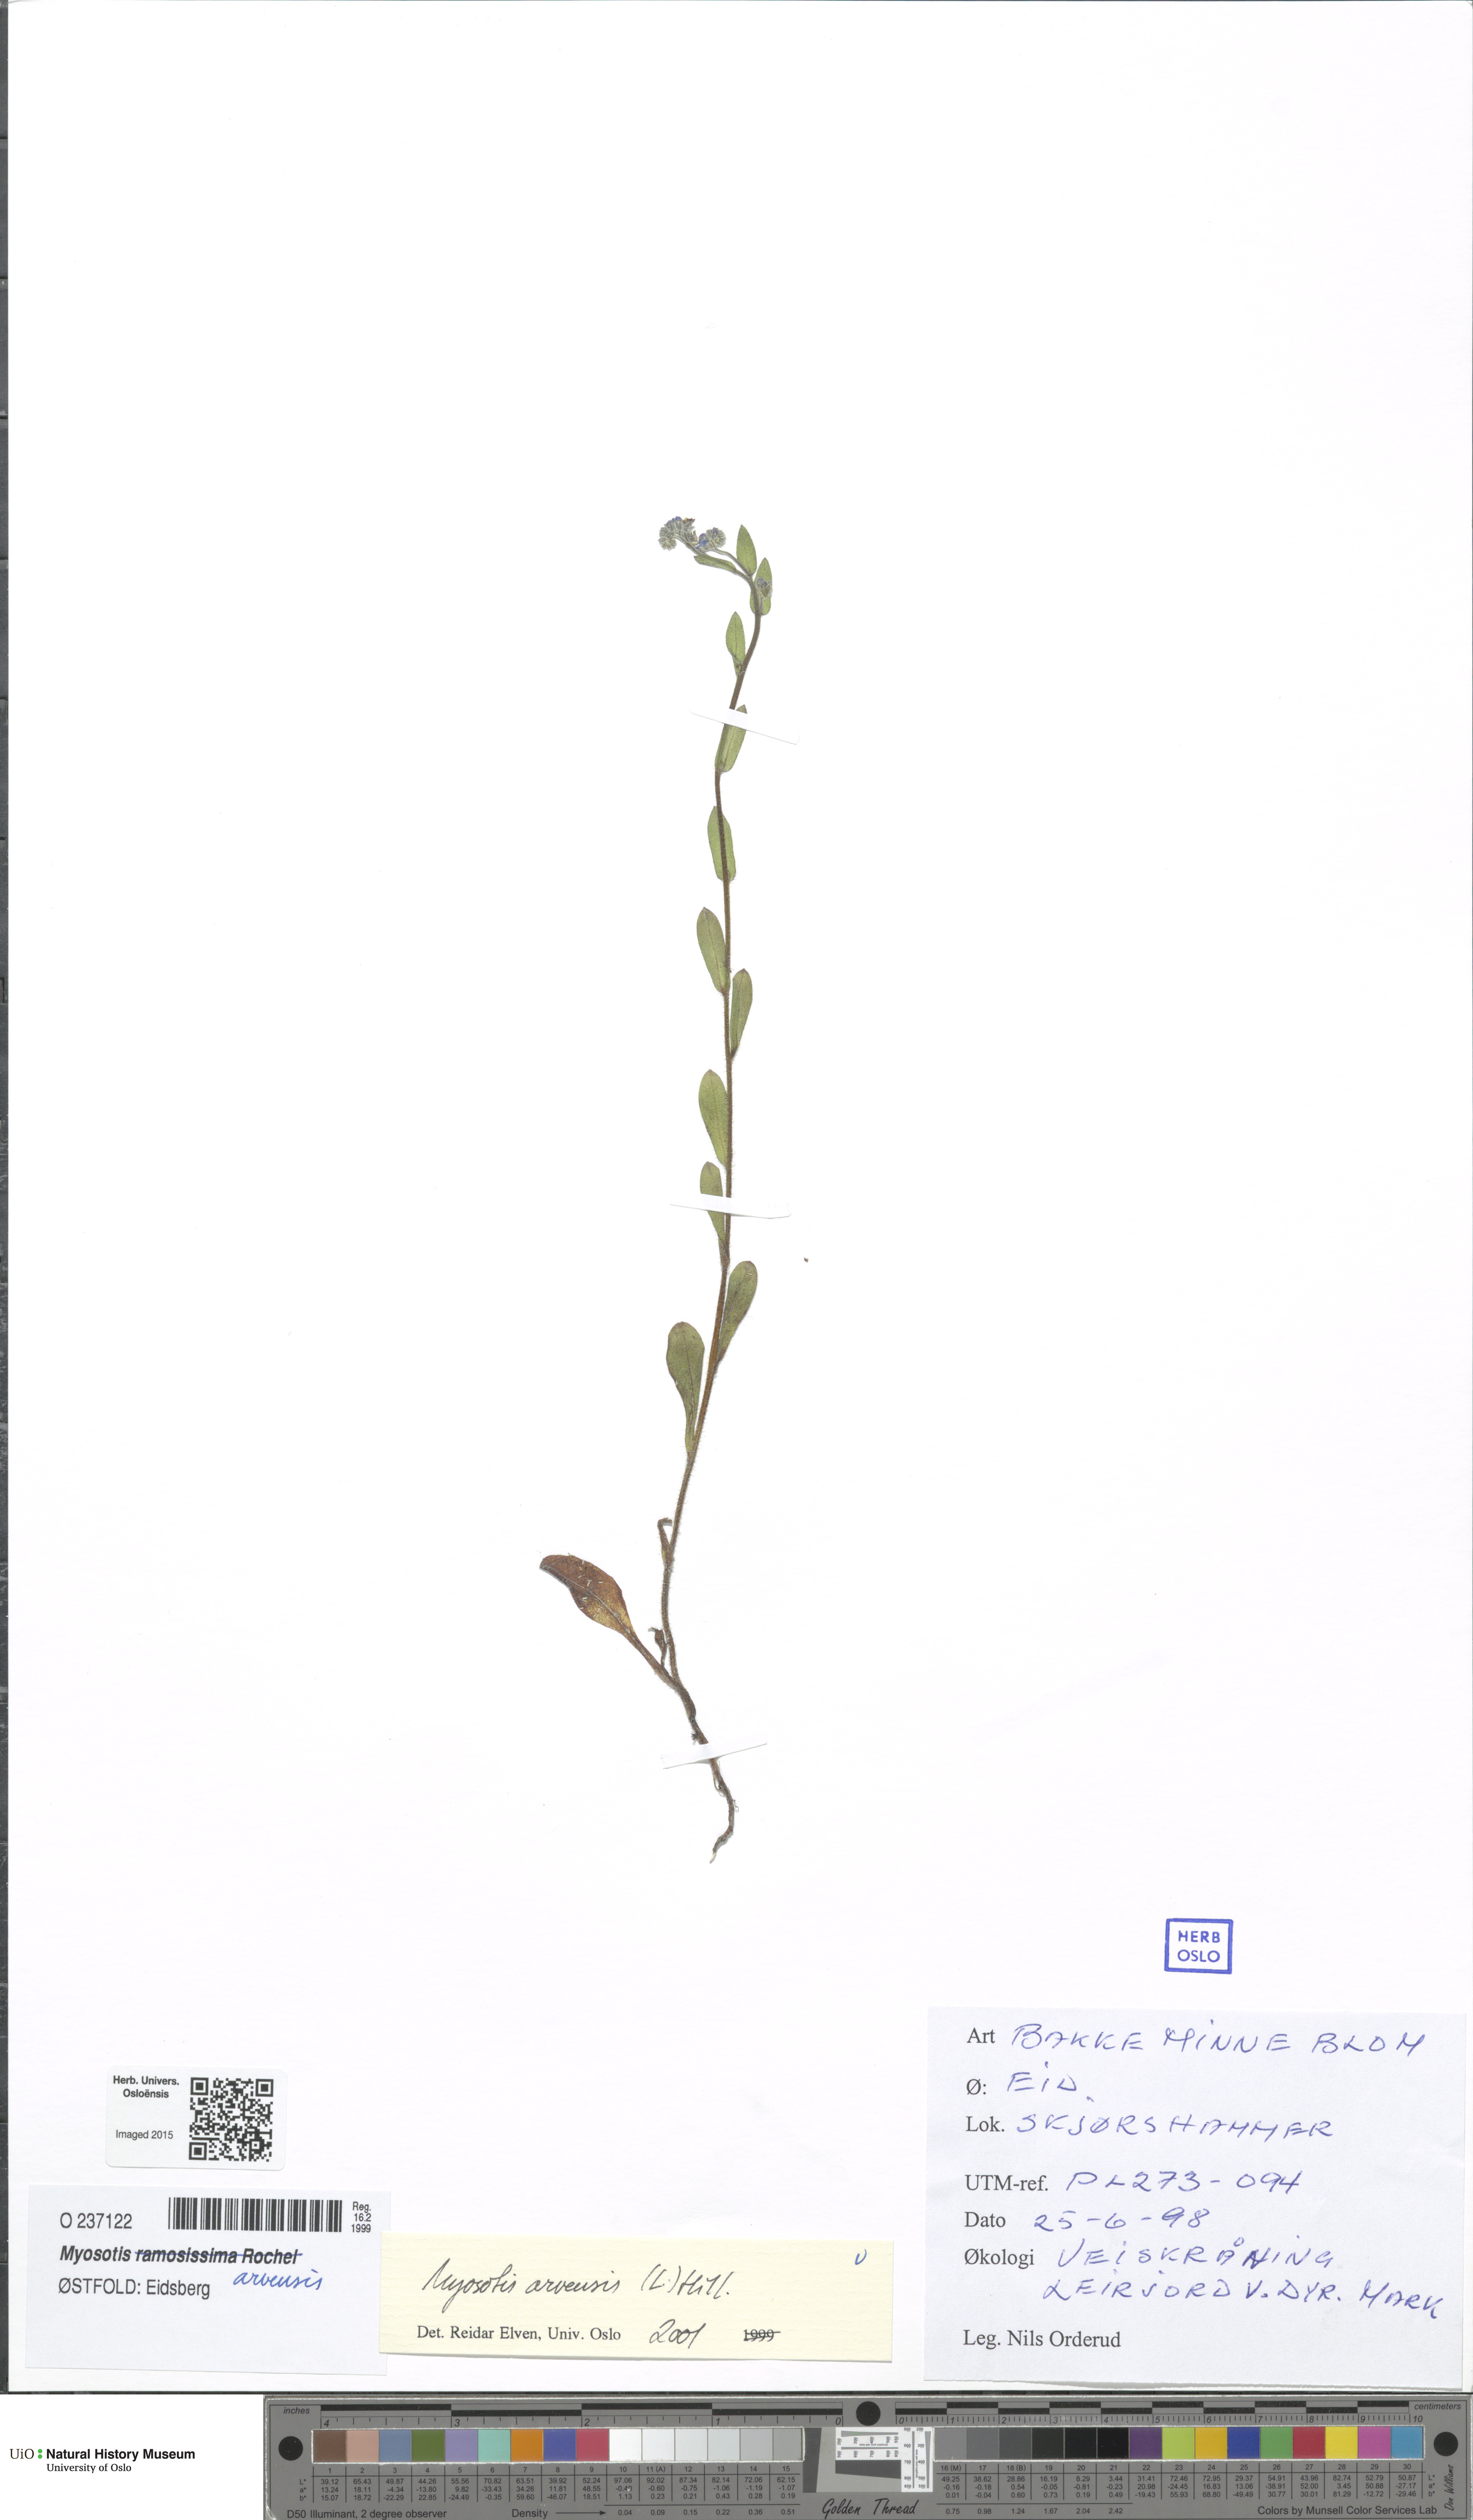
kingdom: Plantae
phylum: Tracheophyta
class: Magnoliopsida
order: Boraginales
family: Boraginaceae
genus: Myosotis
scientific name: Myosotis arvensis
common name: Field forget-me-not
